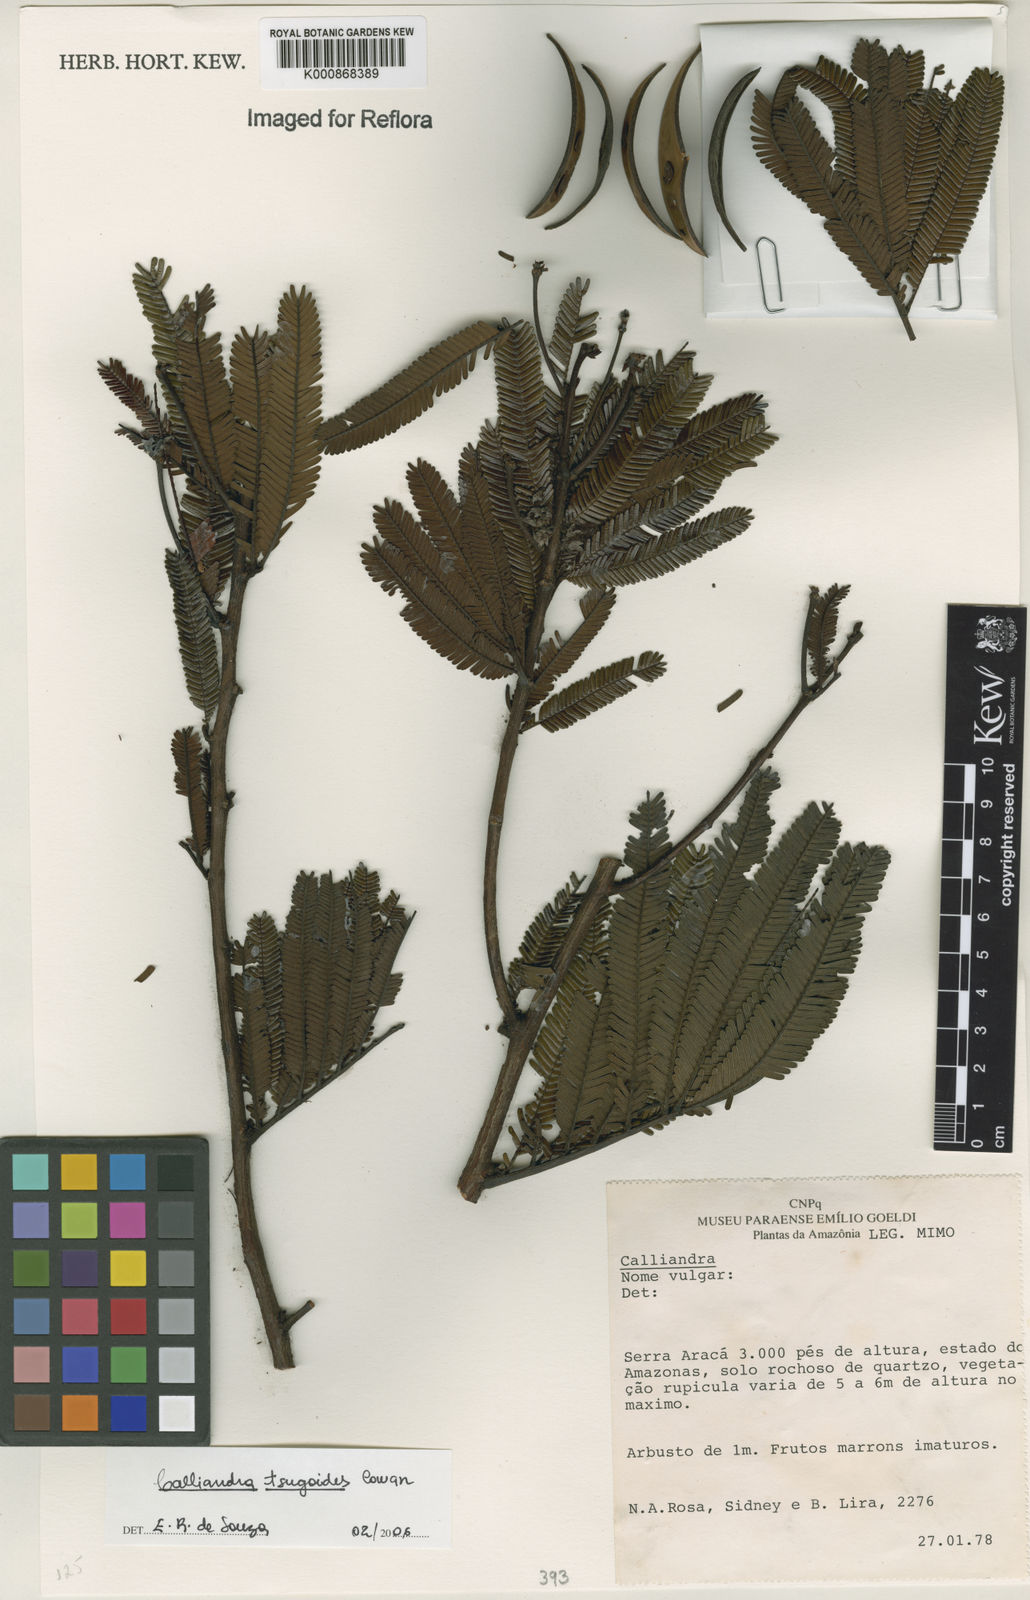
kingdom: Plantae
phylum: Tracheophyta
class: Magnoliopsida
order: Fabales
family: Fabaceae
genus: Calliandra
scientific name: Calliandra tsugoides
